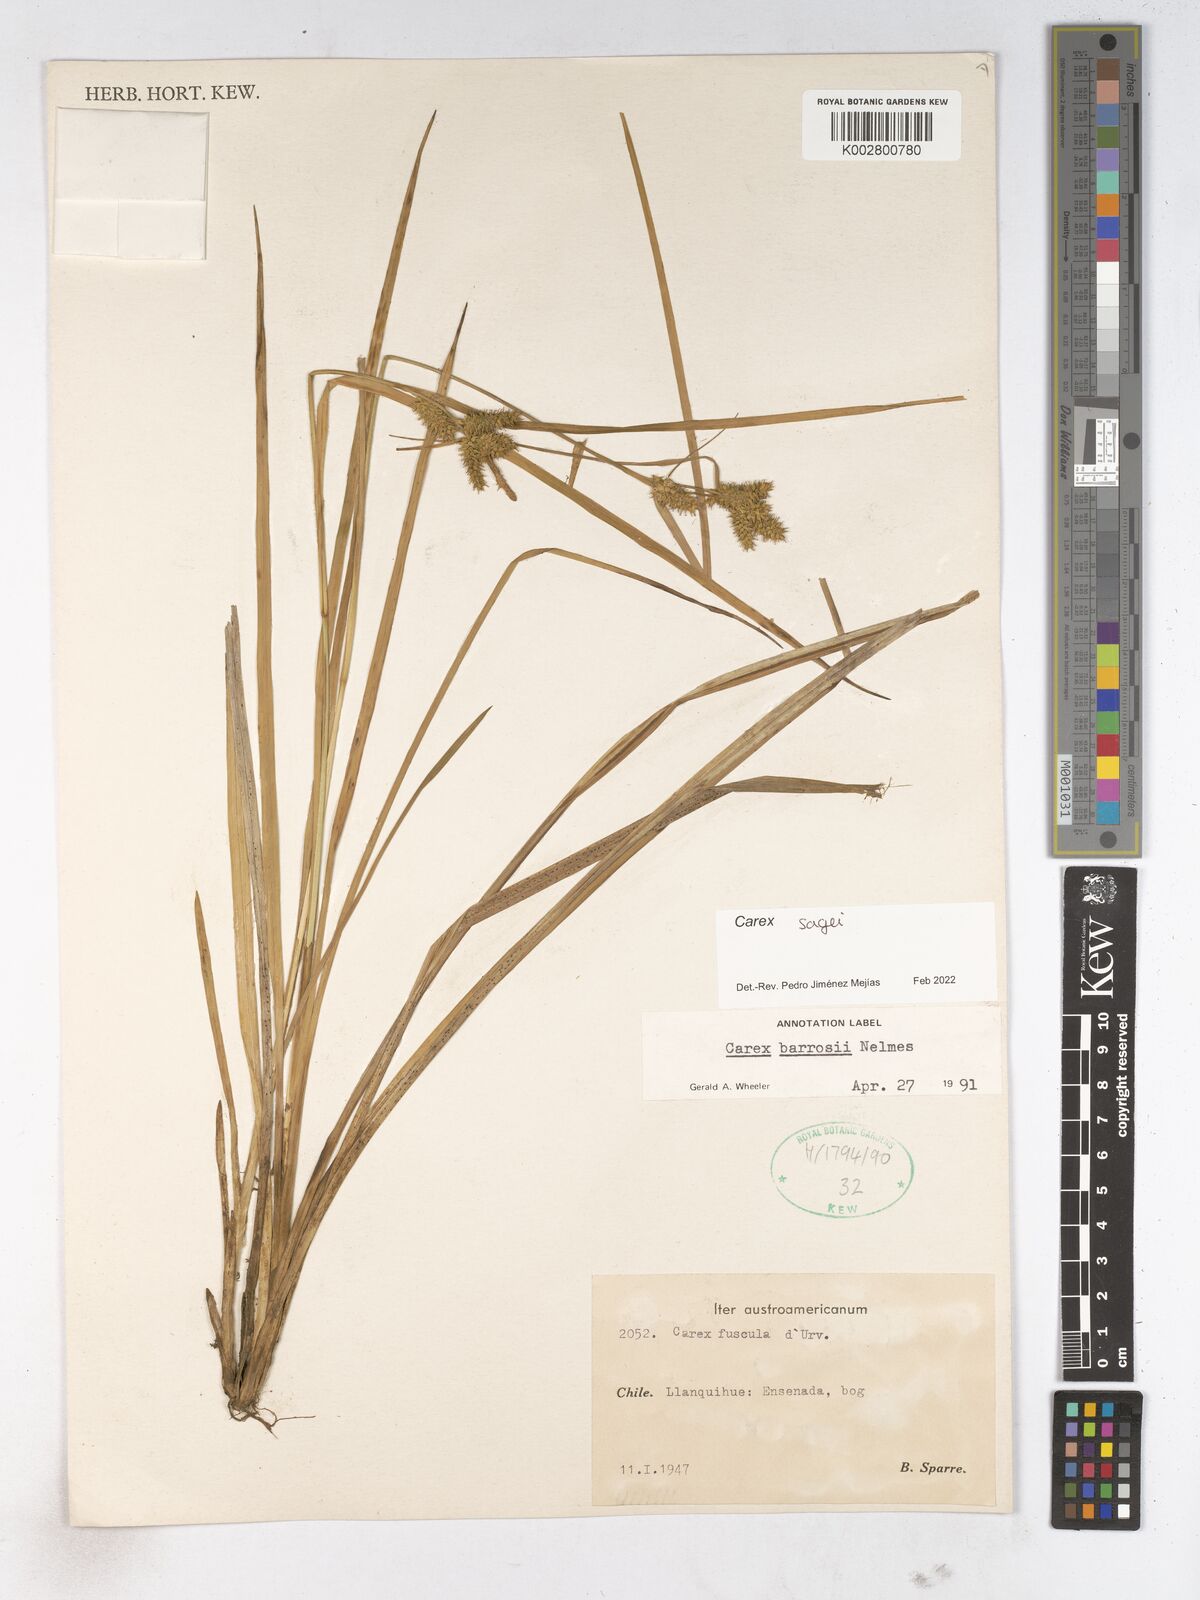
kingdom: Plantae
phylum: Tracheophyta
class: Liliopsida
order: Poales
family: Cyperaceae
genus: Carex
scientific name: Carex
